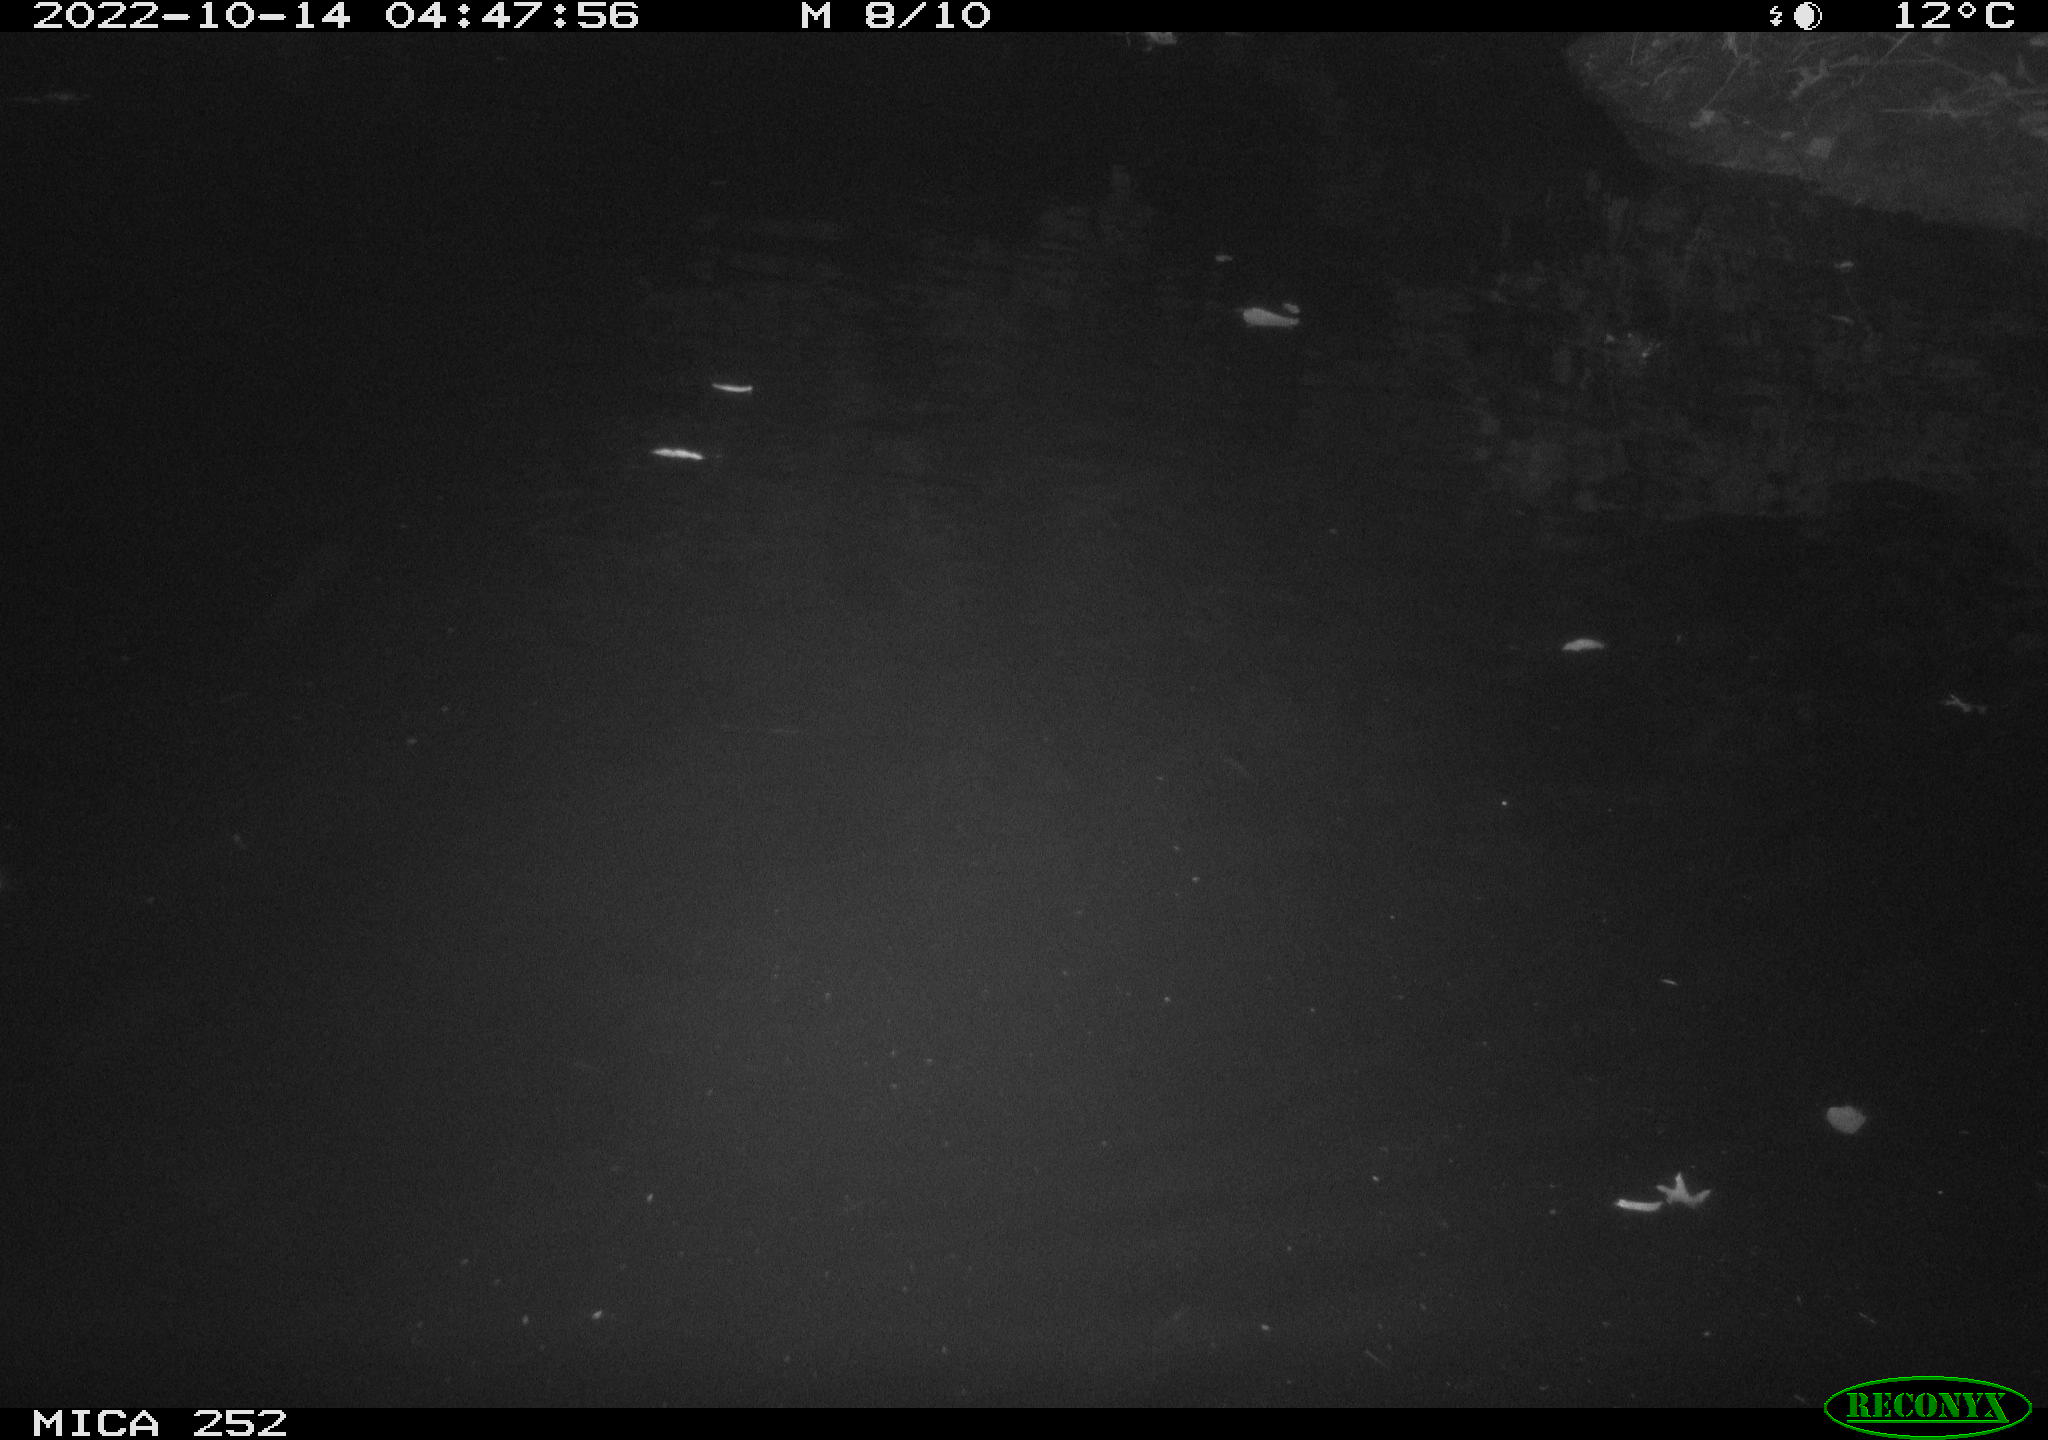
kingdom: Animalia
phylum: Chordata
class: Mammalia
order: Rodentia
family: Castoridae
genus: Castor
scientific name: Castor fiber
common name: Eurasian beaver
